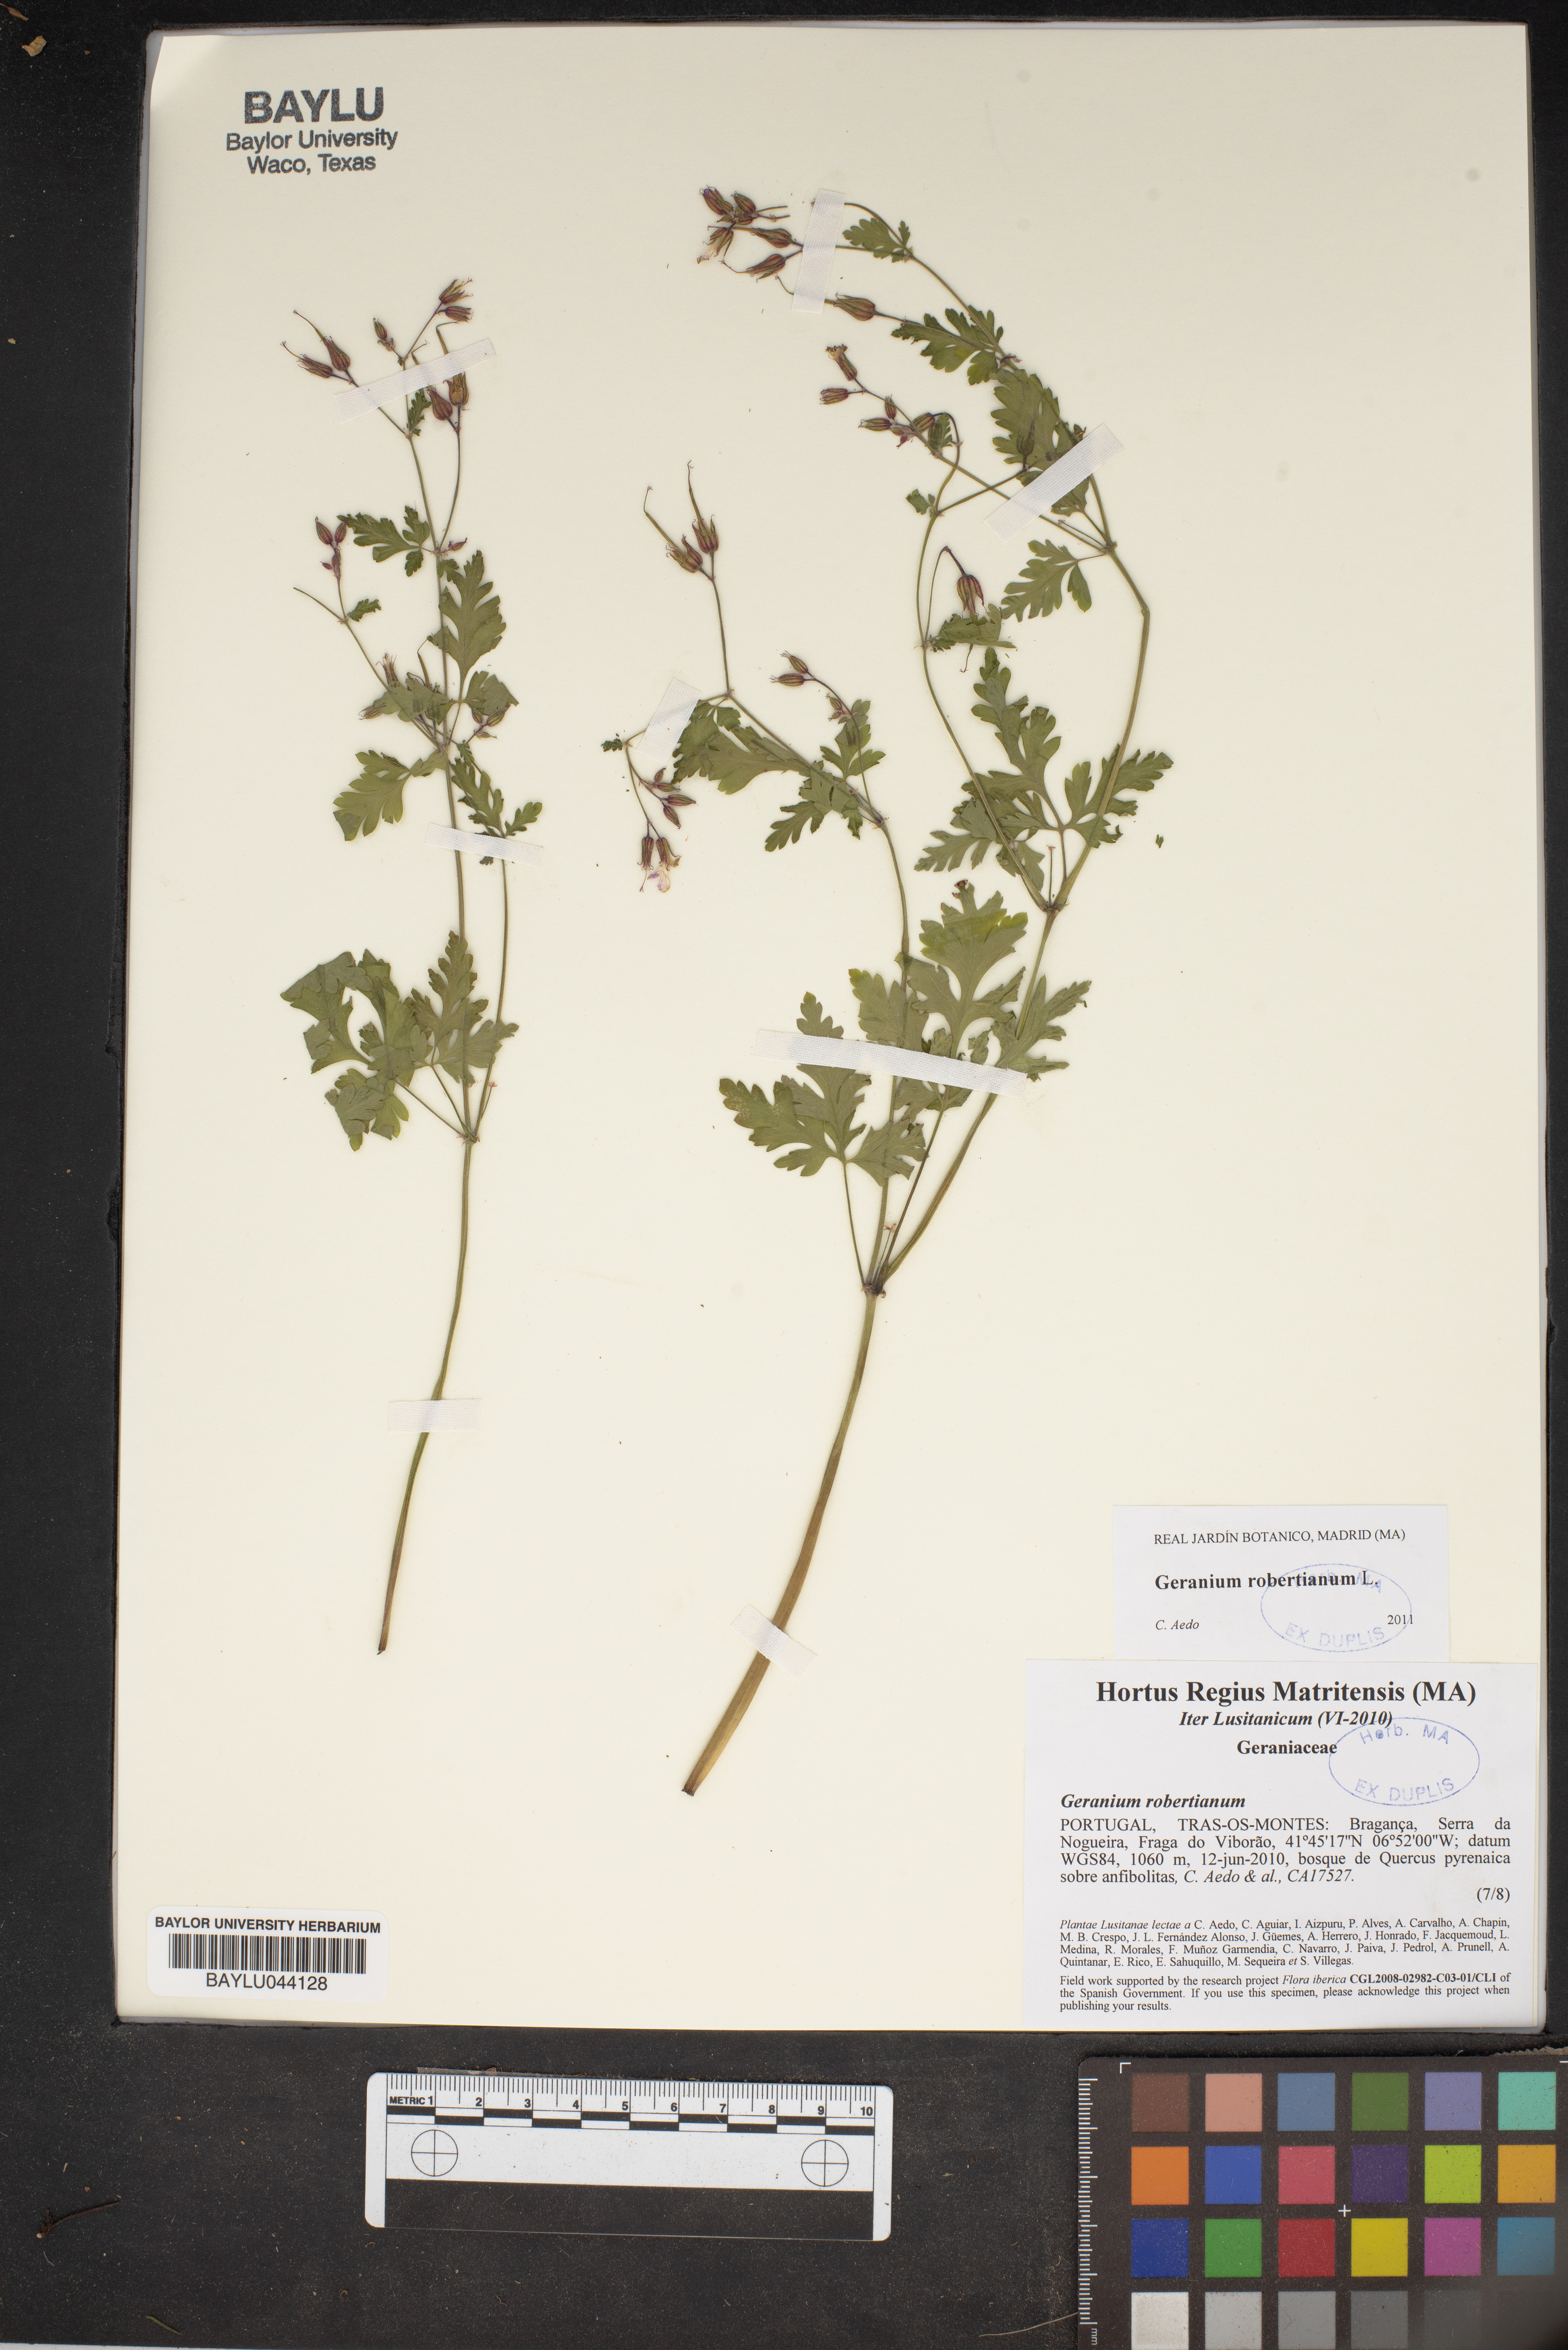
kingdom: Plantae
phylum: Tracheophyta
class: Magnoliopsida
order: Geraniales
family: Geraniaceae
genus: Geranium
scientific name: Geranium robertianum
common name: Herb-robert
